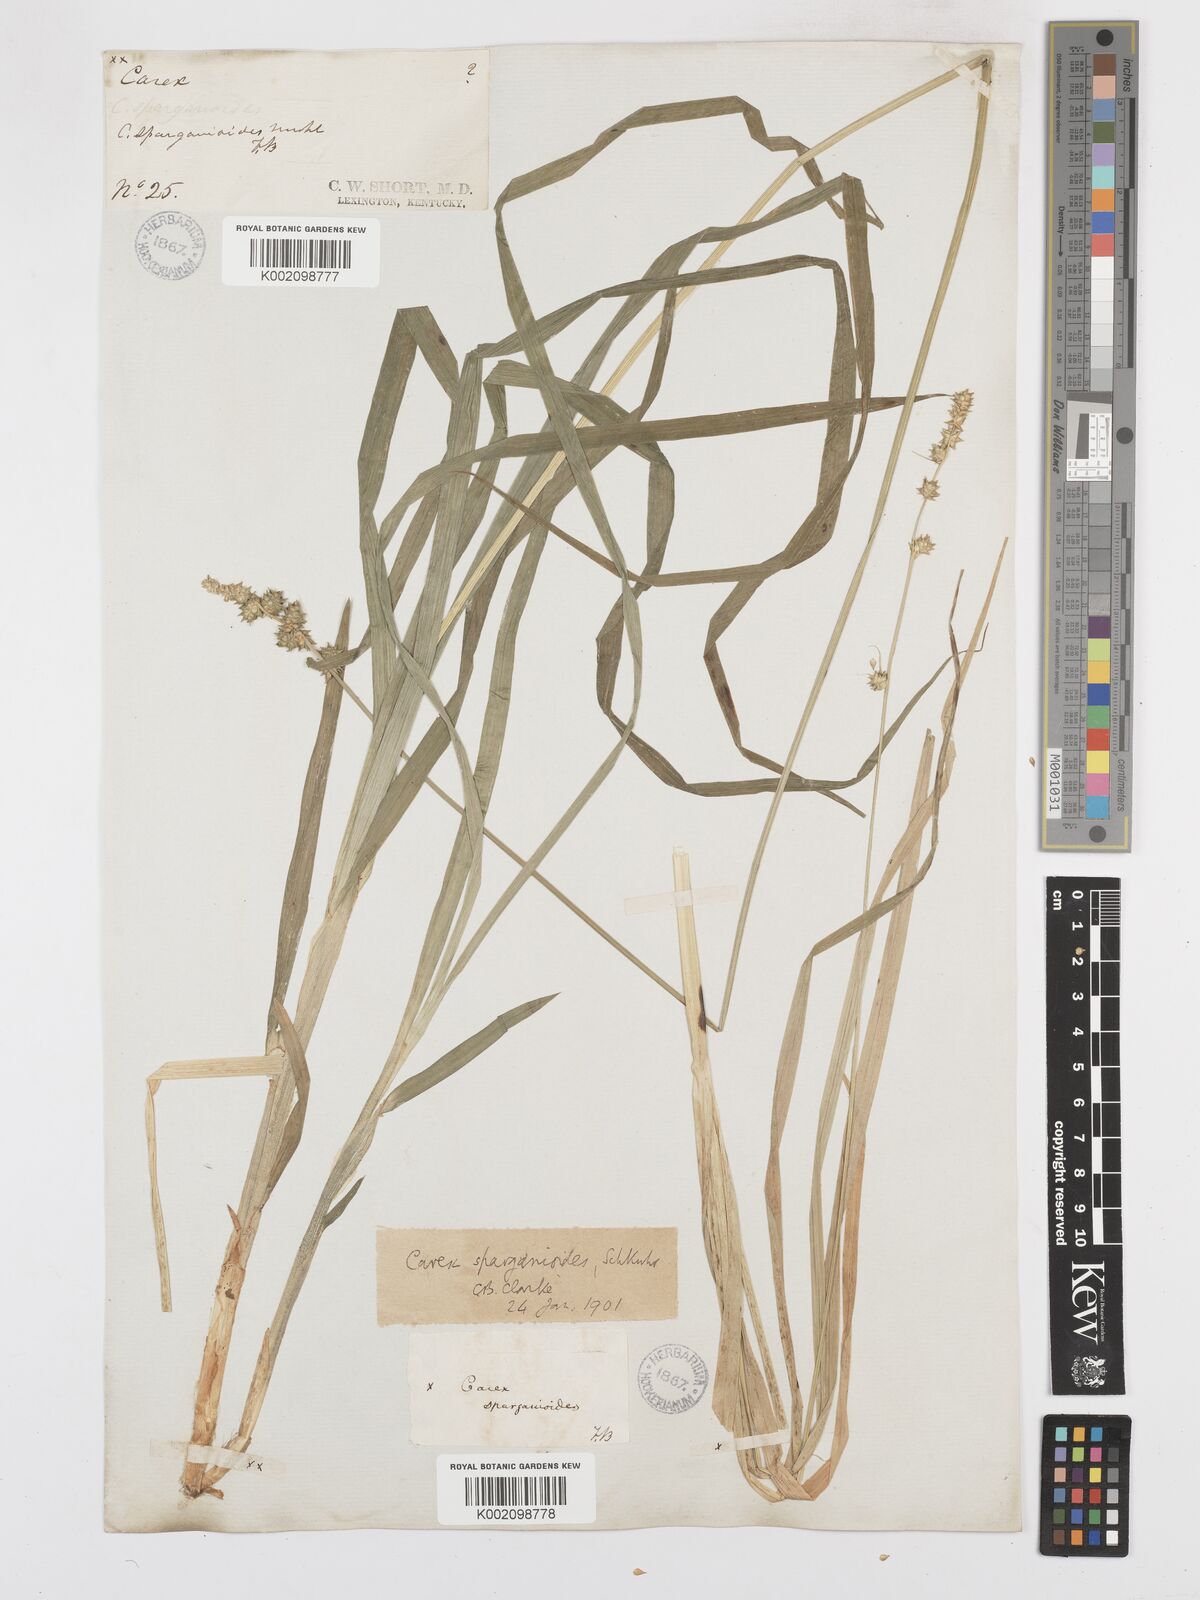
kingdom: Plantae
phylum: Tracheophyta
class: Liliopsida
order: Poales
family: Cyperaceae
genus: Carex
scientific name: Carex sparganioides
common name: Burreed sedge
